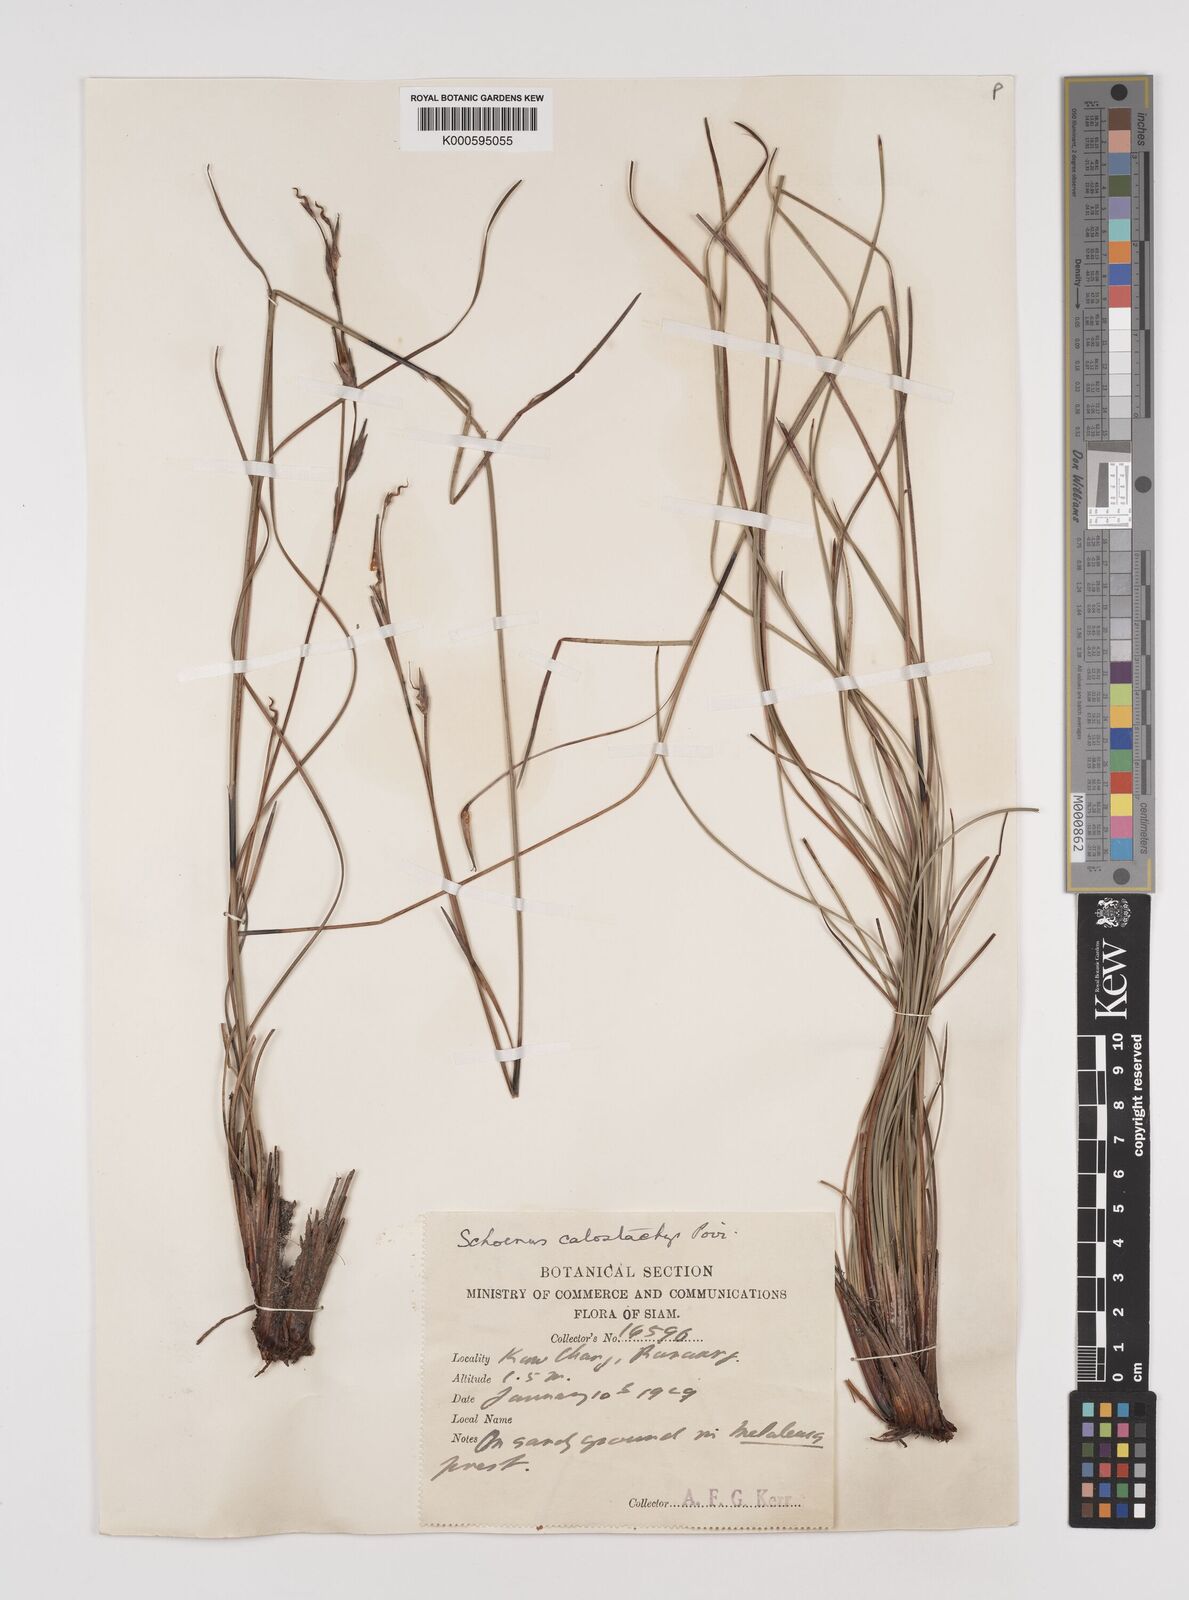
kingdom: Plantae
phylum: Tracheophyta
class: Liliopsida
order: Poales
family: Cyperaceae
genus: Schoenus
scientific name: Schoenus
